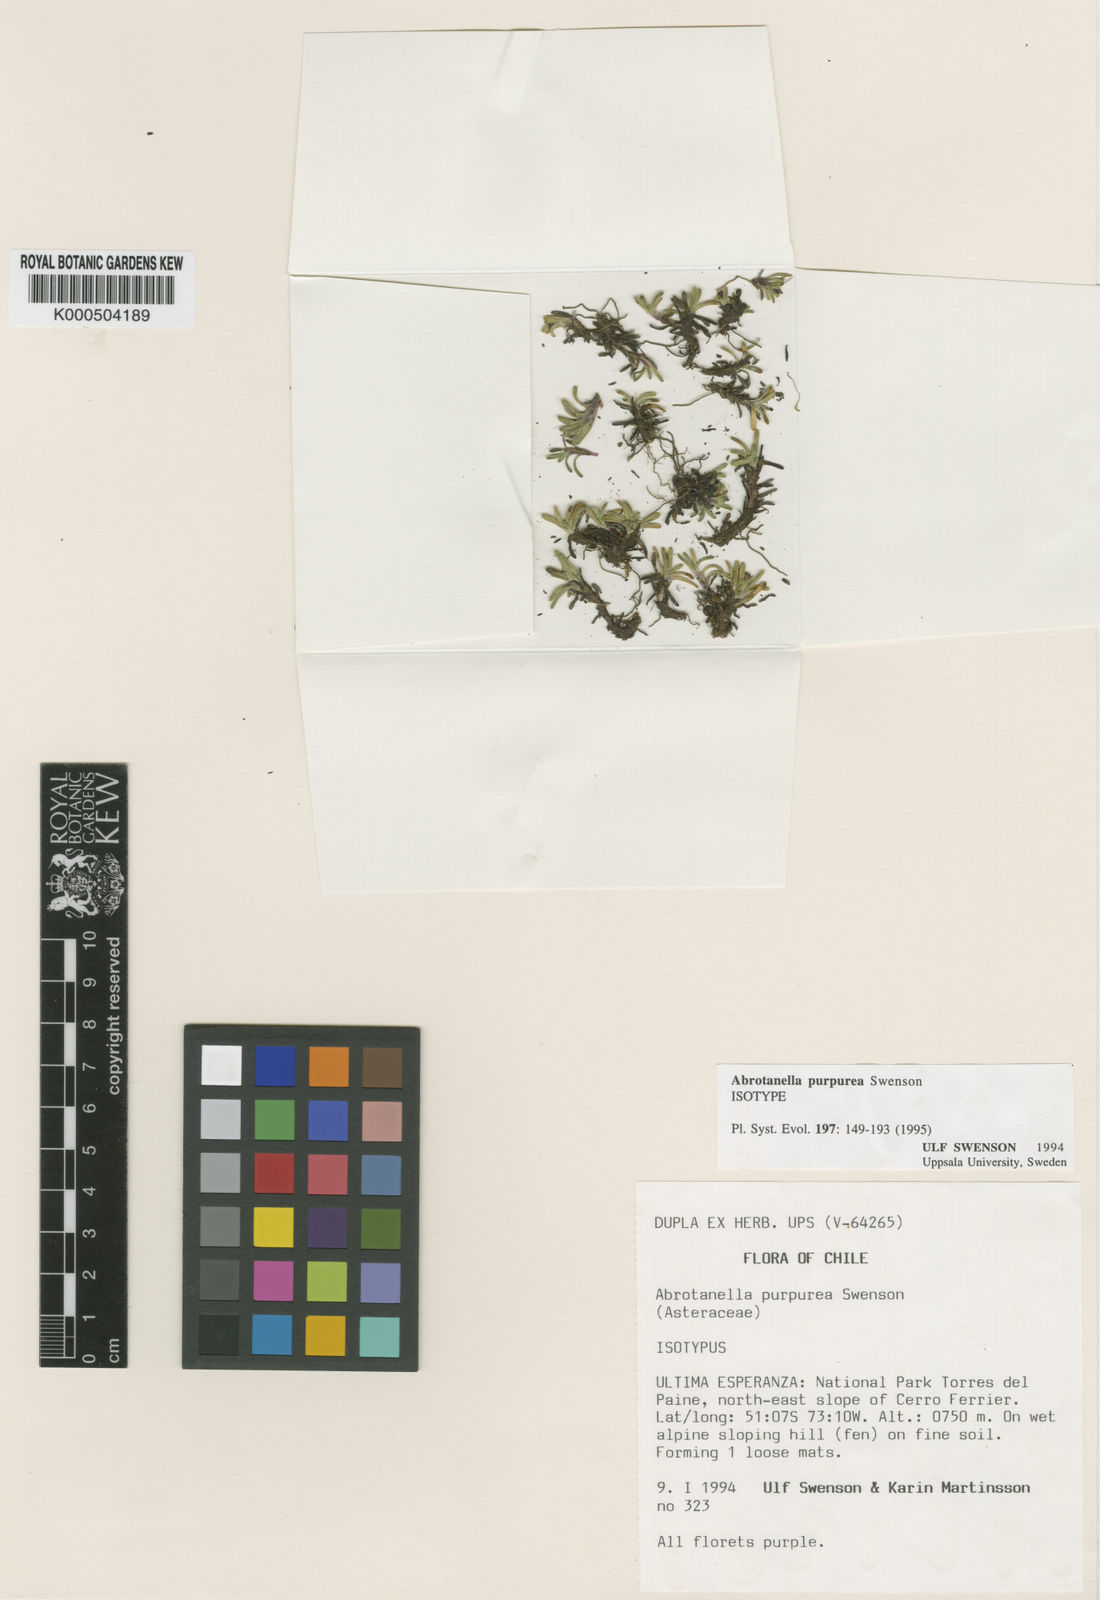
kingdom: Plantae
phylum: Tracheophyta
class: Magnoliopsida
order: Asterales
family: Asteraceae
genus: Abrotanella
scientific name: Abrotanella purpurea
